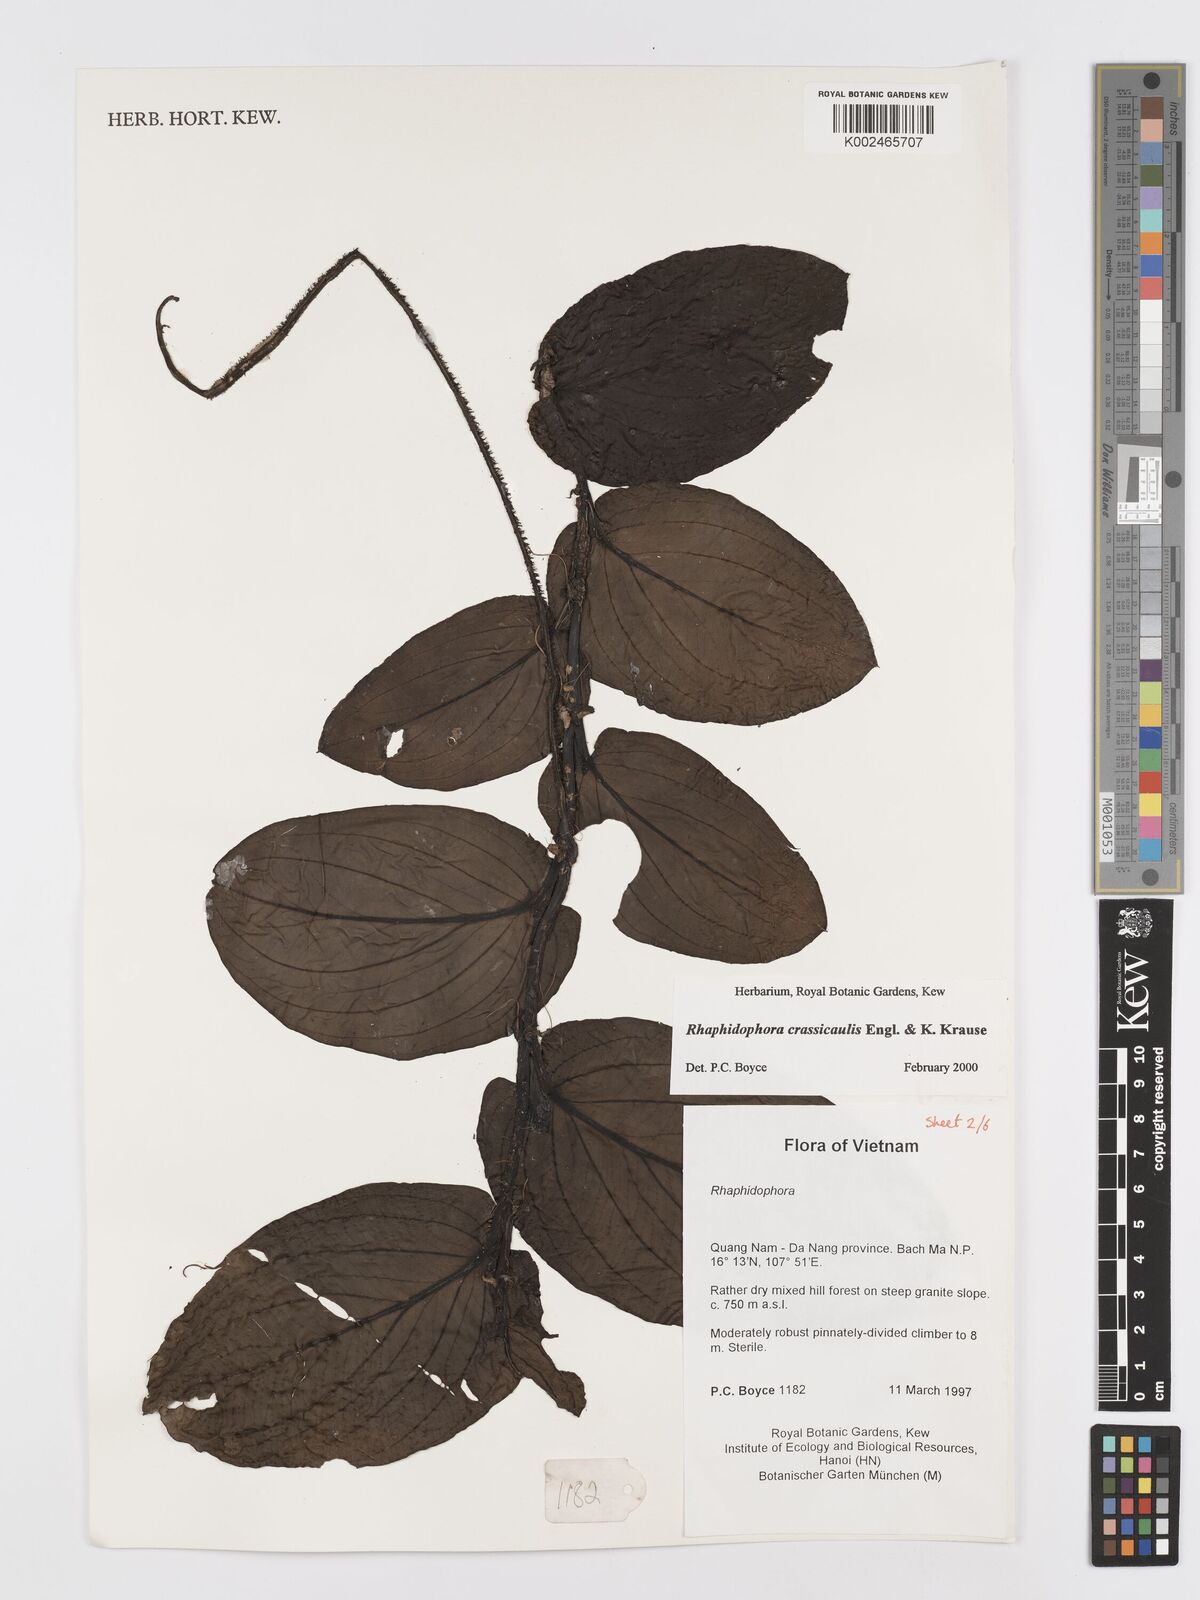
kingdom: Plantae
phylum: Tracheophyta
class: Liliopsida
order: Alismatales
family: Araceae
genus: Rhaphidophora
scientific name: Rhaphidophora crassicaulis
